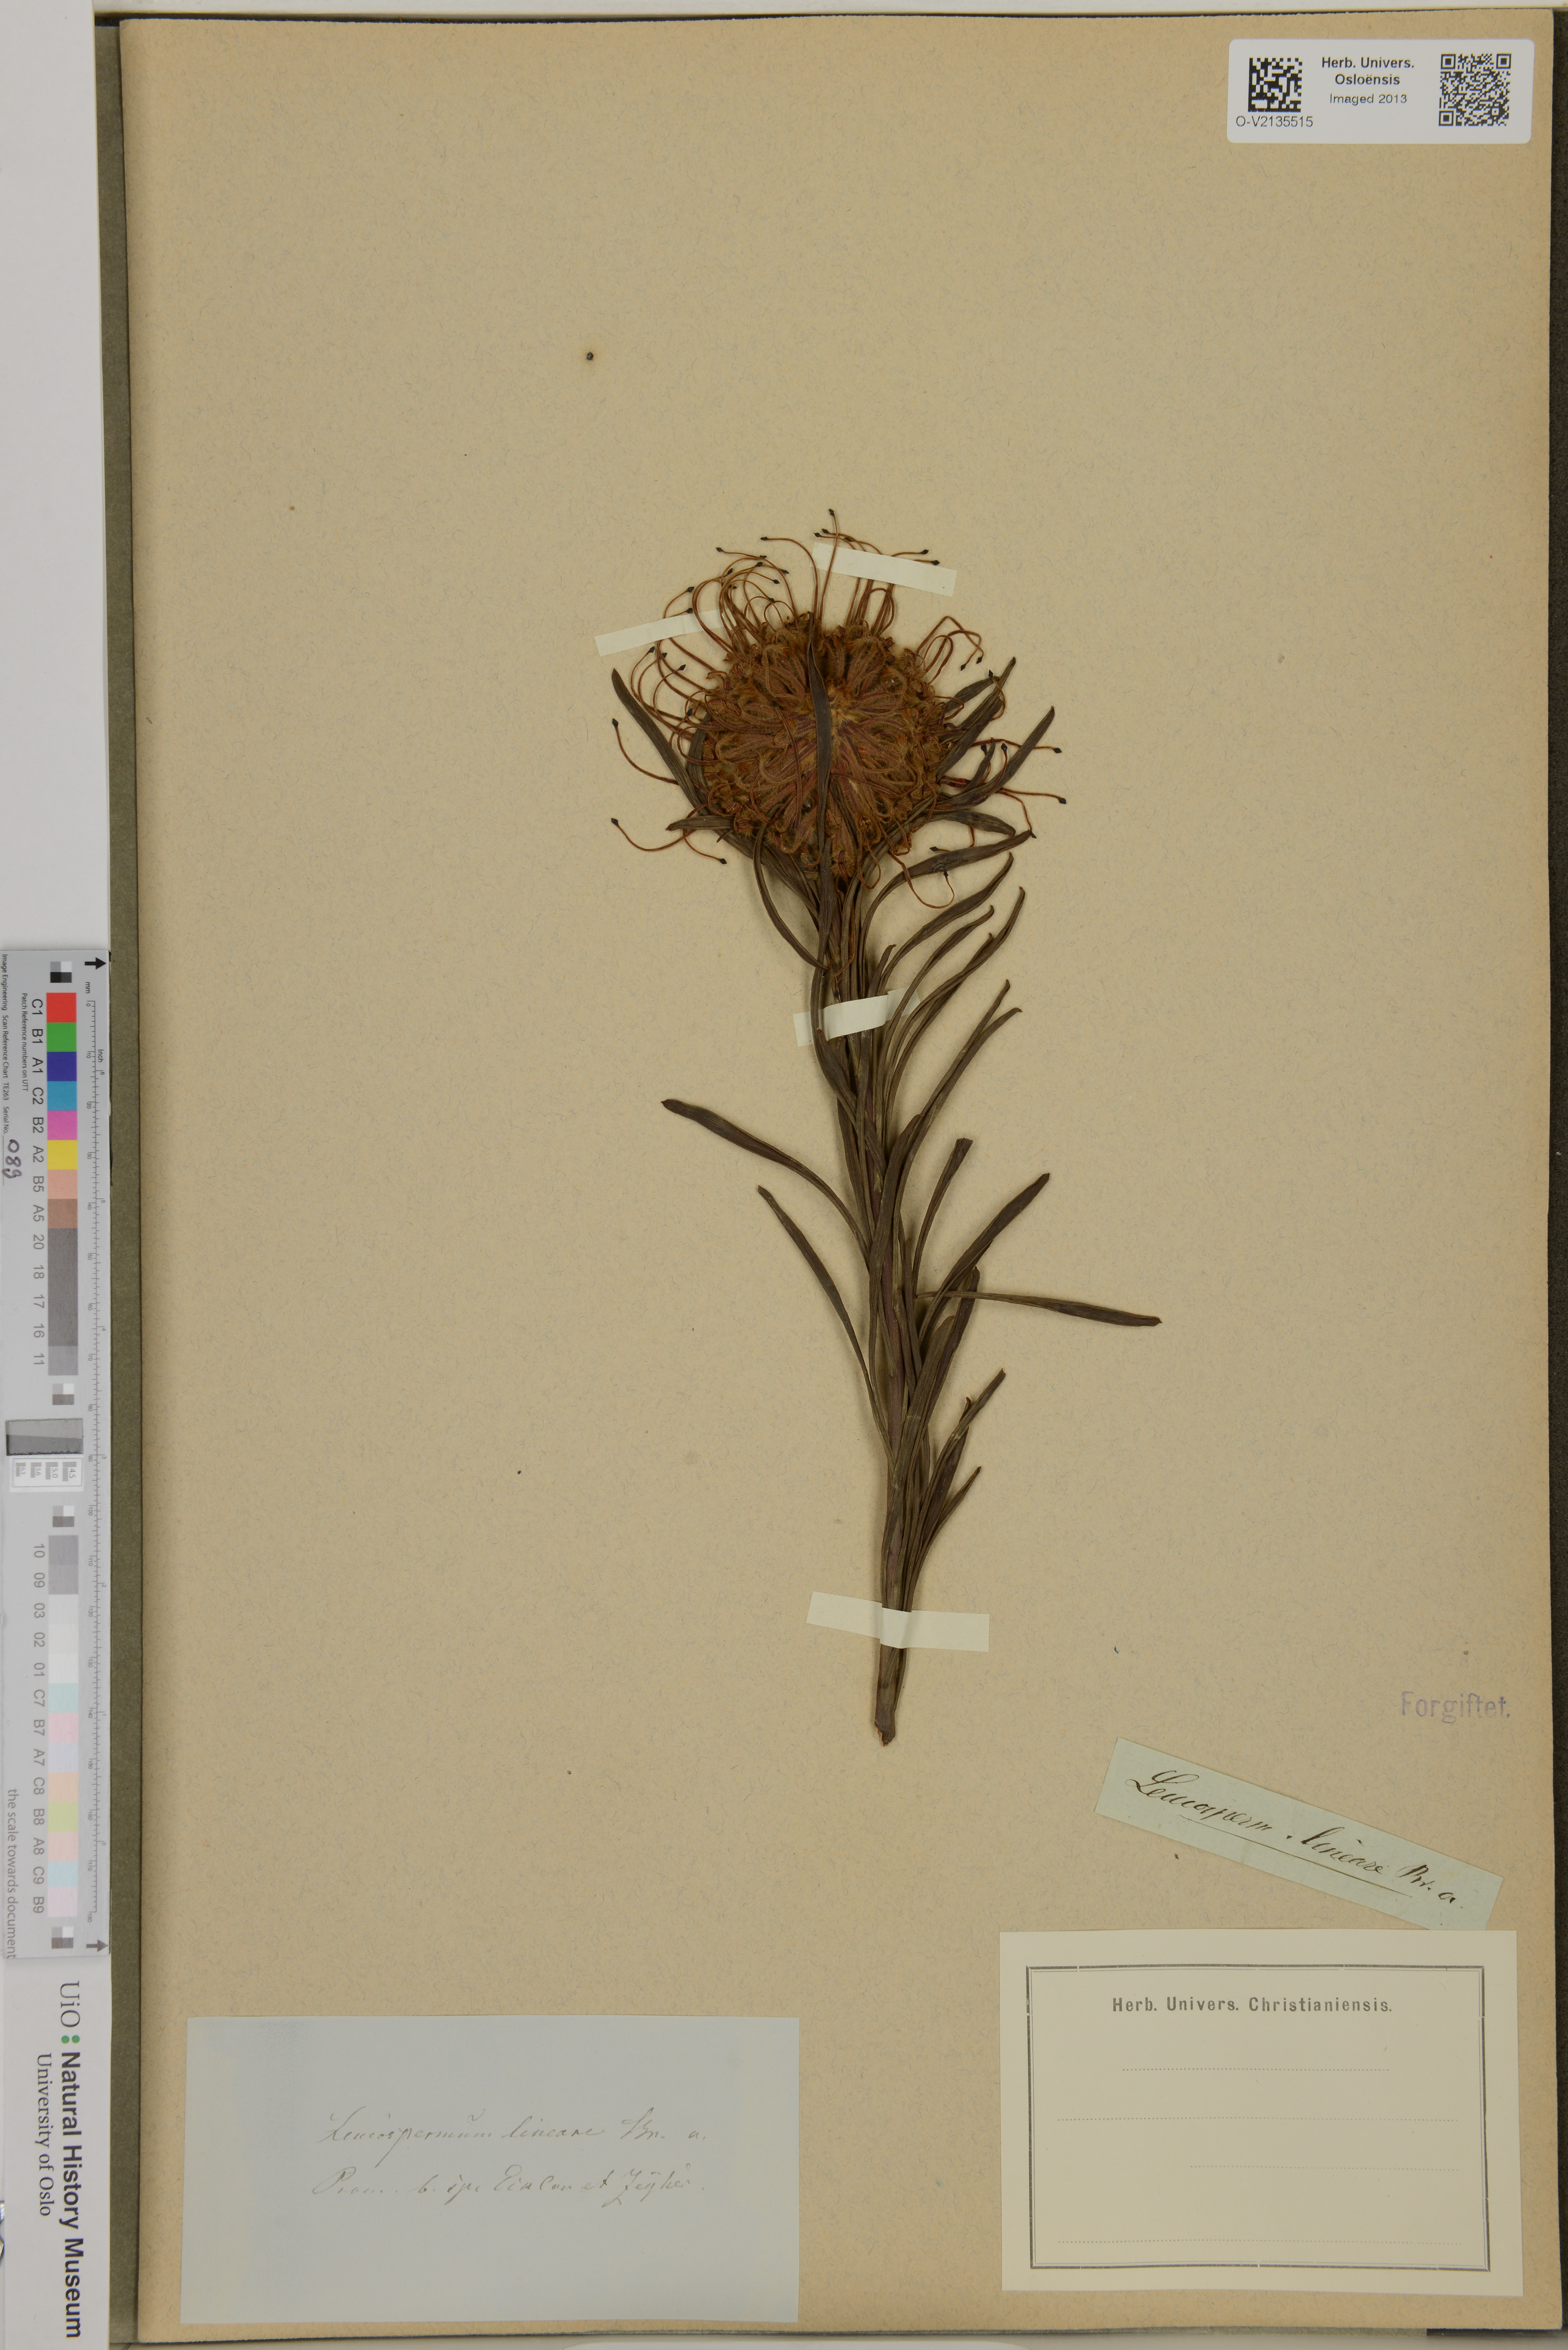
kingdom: Plantae
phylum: Tracheophyta
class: Magnoliopsida
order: Proteales
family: Proteaceae
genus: Leucospermum
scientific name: Leucospermum lineare
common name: Needle-leaf pincushion
